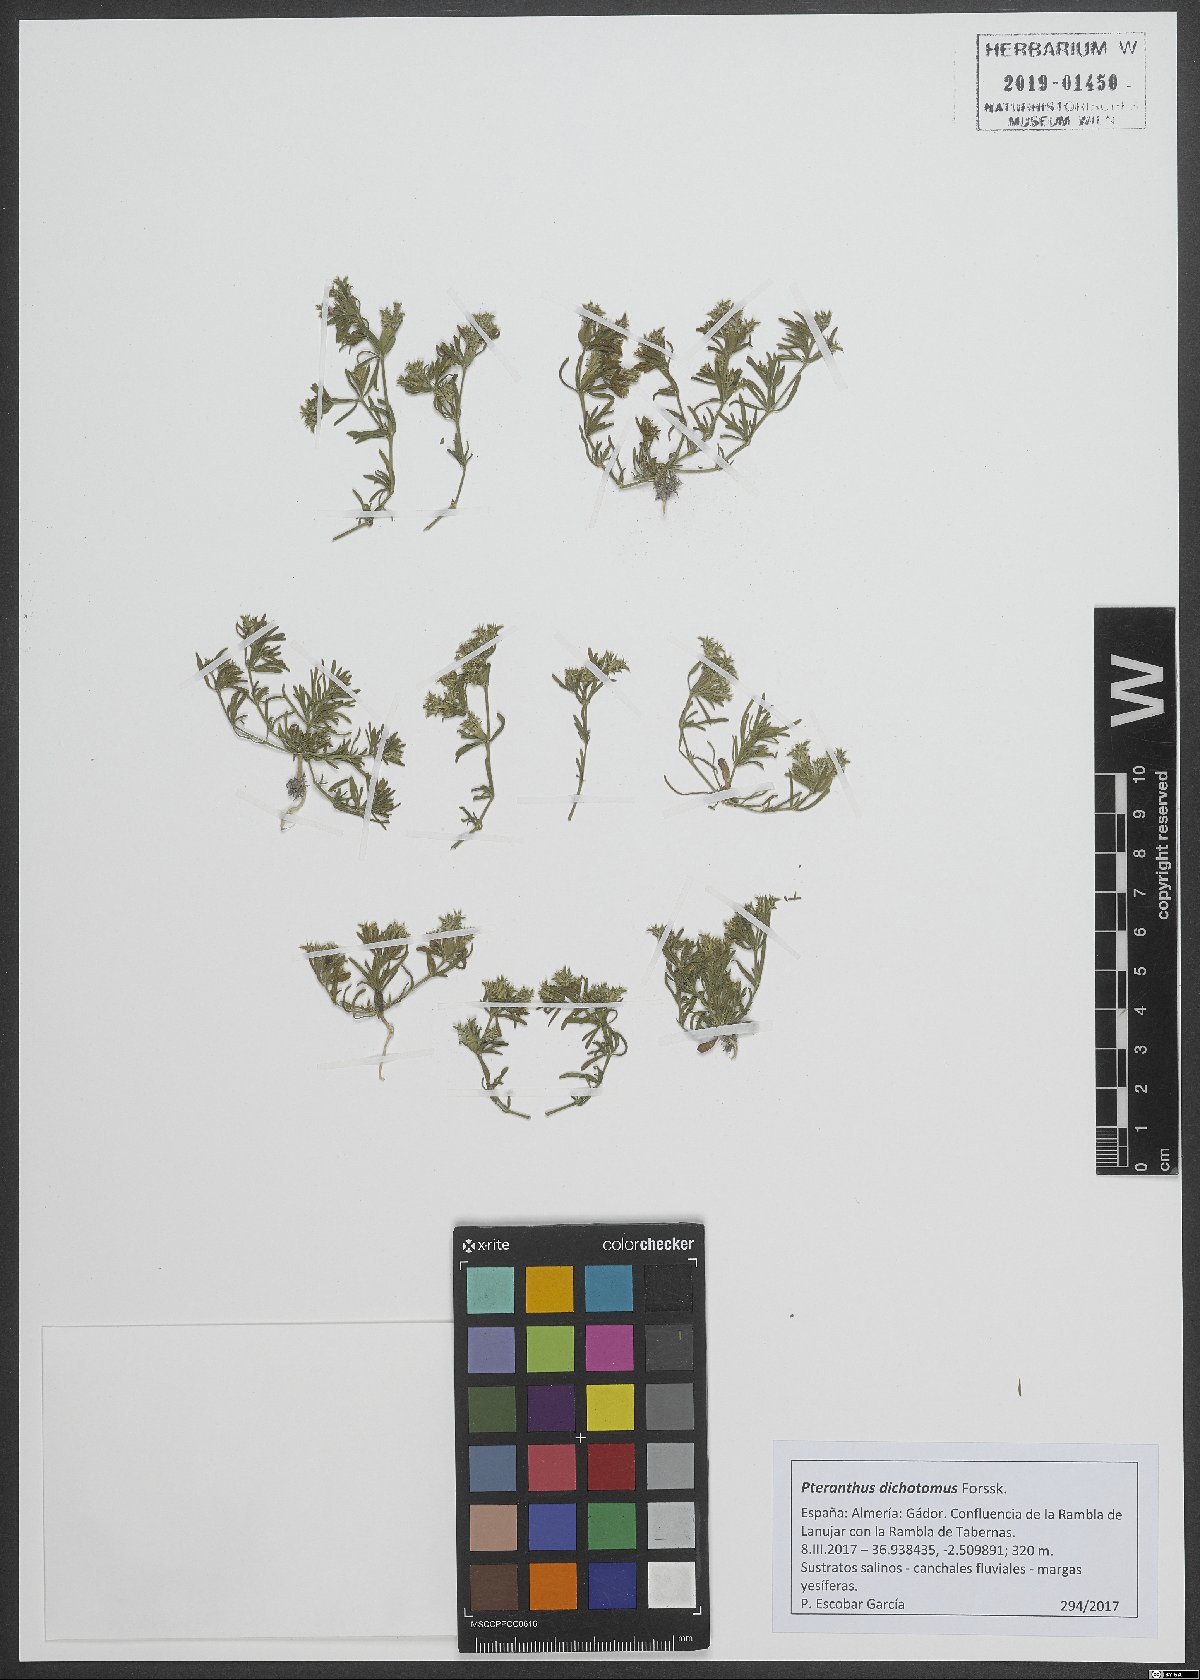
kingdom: Plantae
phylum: Tracheophyta
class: Magnoliopsida
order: Caryophyllales
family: Caryophyllaceae
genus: Pteranthus
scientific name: Pteranthus dichotomus
